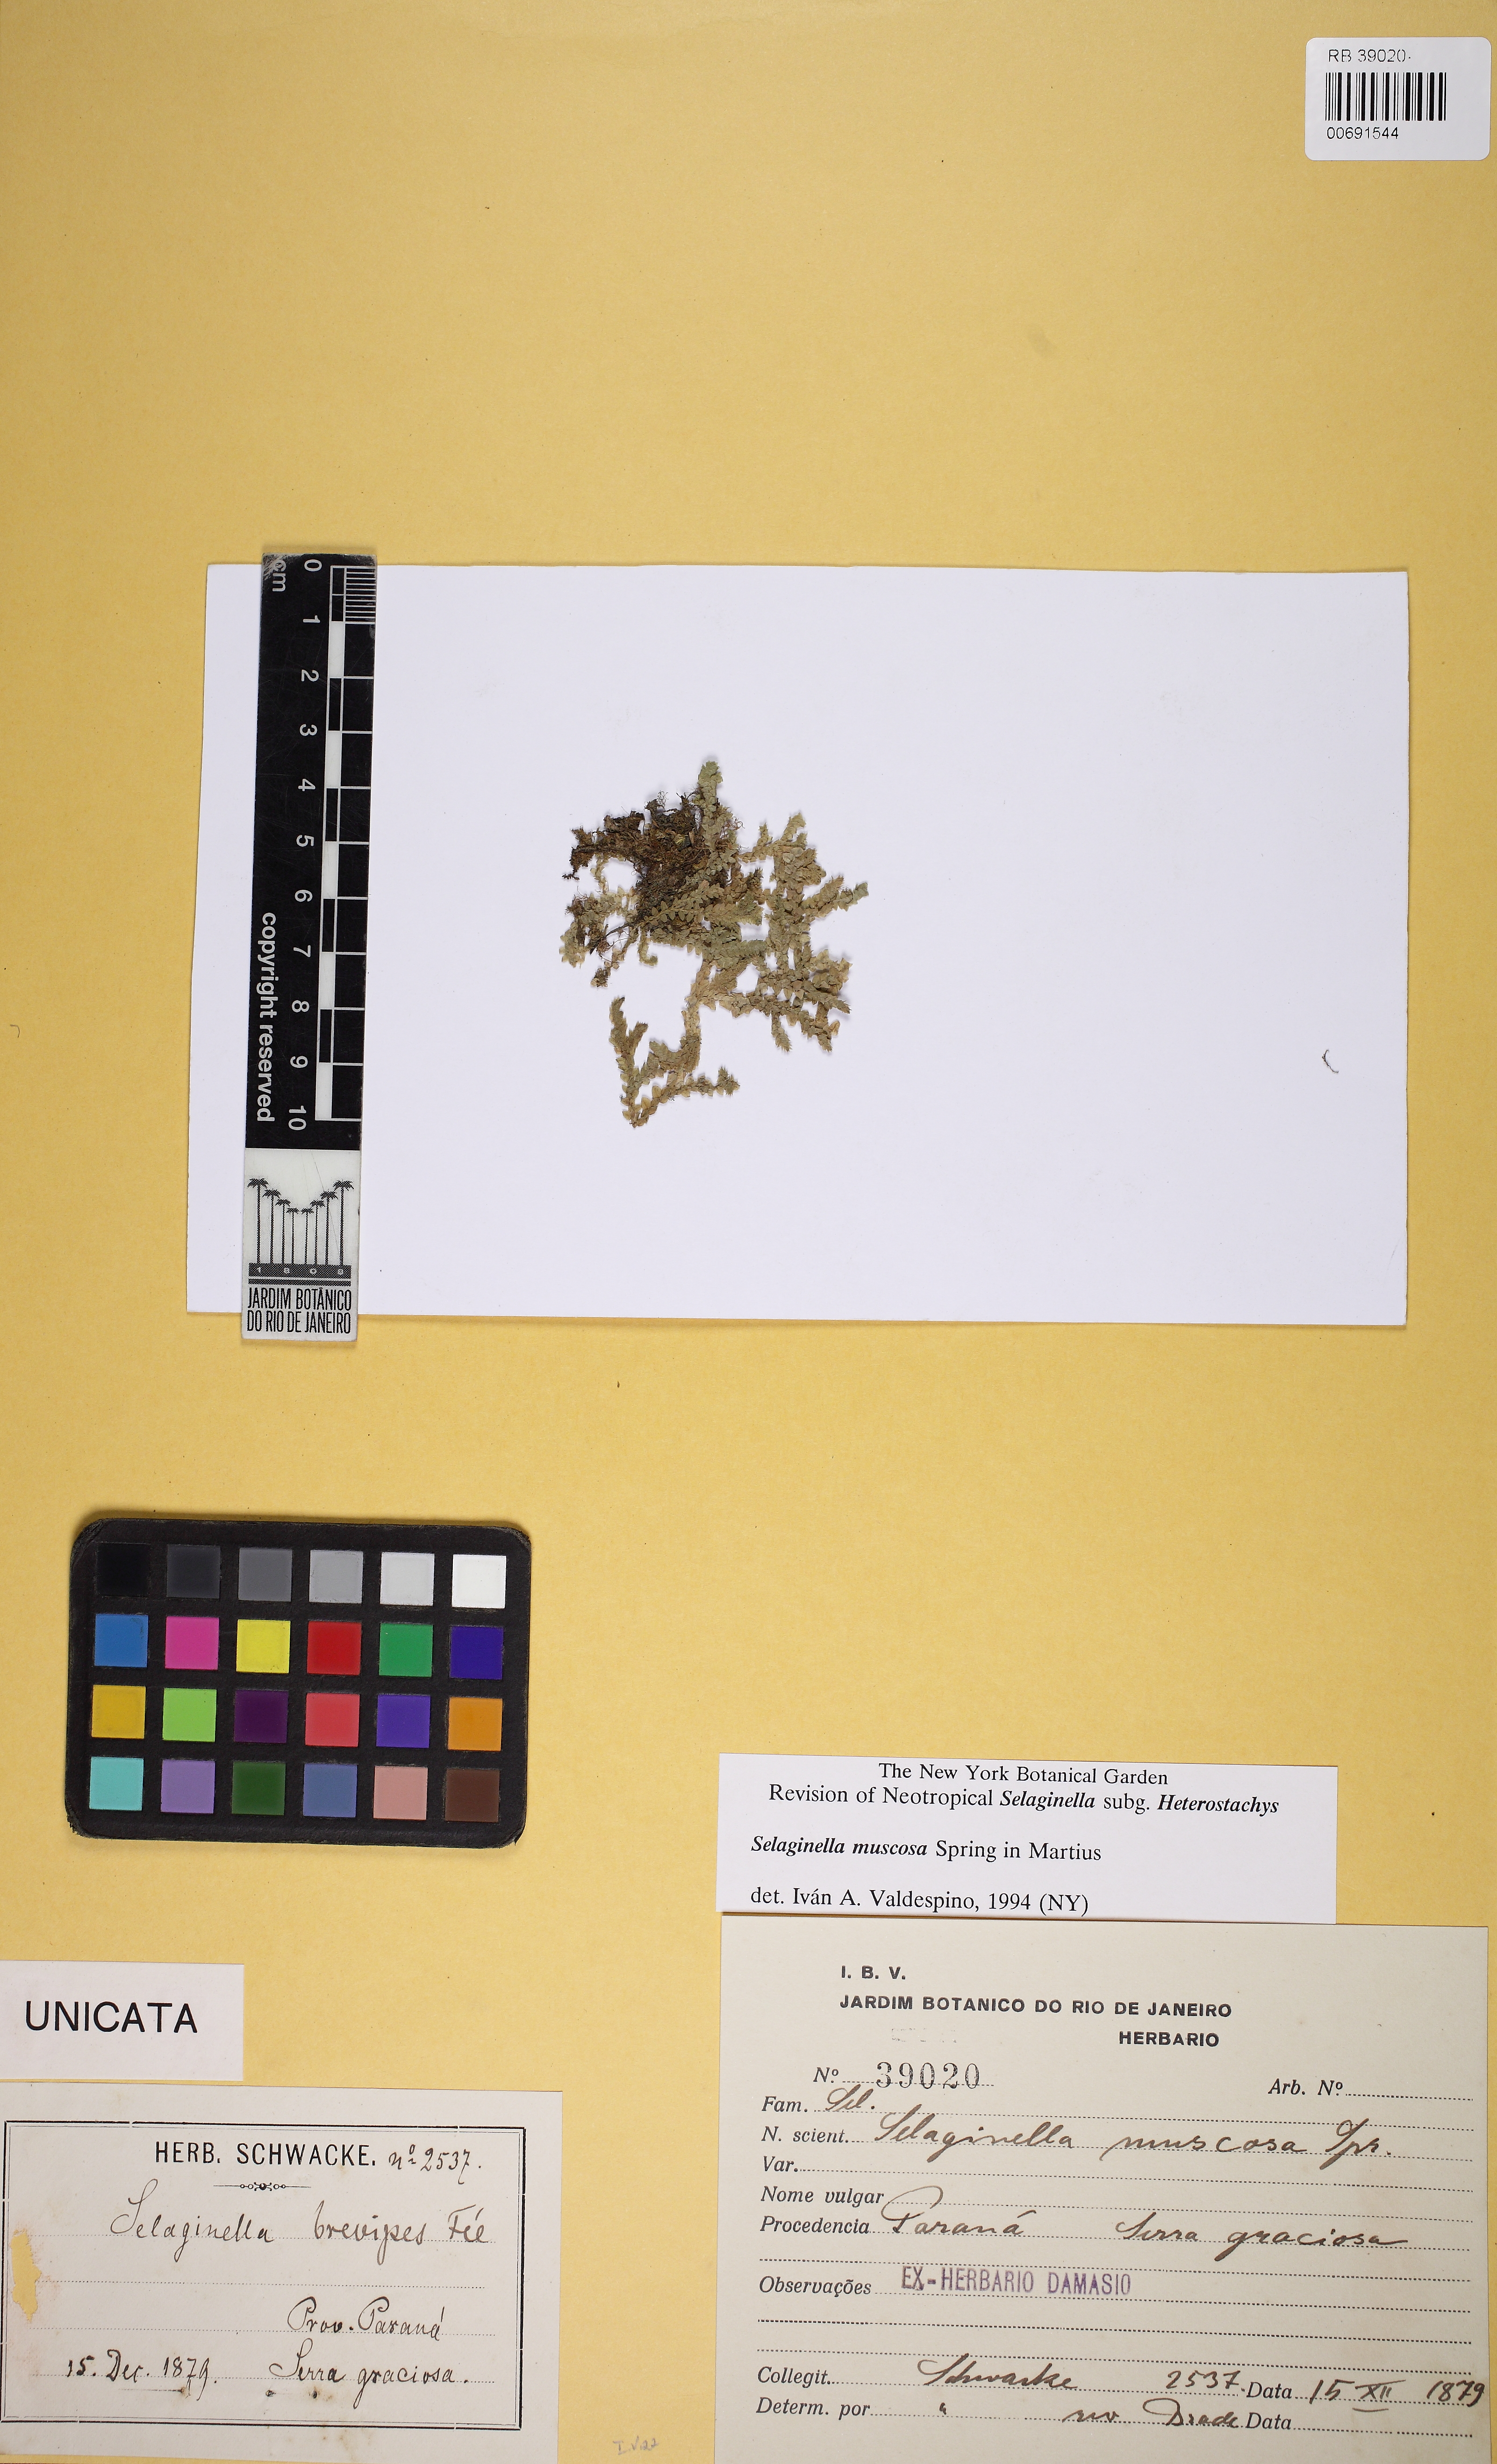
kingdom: Plantae
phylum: Tracheophyta
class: Lycopodiopsida
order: Selaginellales
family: Selaginellaceae
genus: Selaginella
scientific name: Selaginella muscosa
